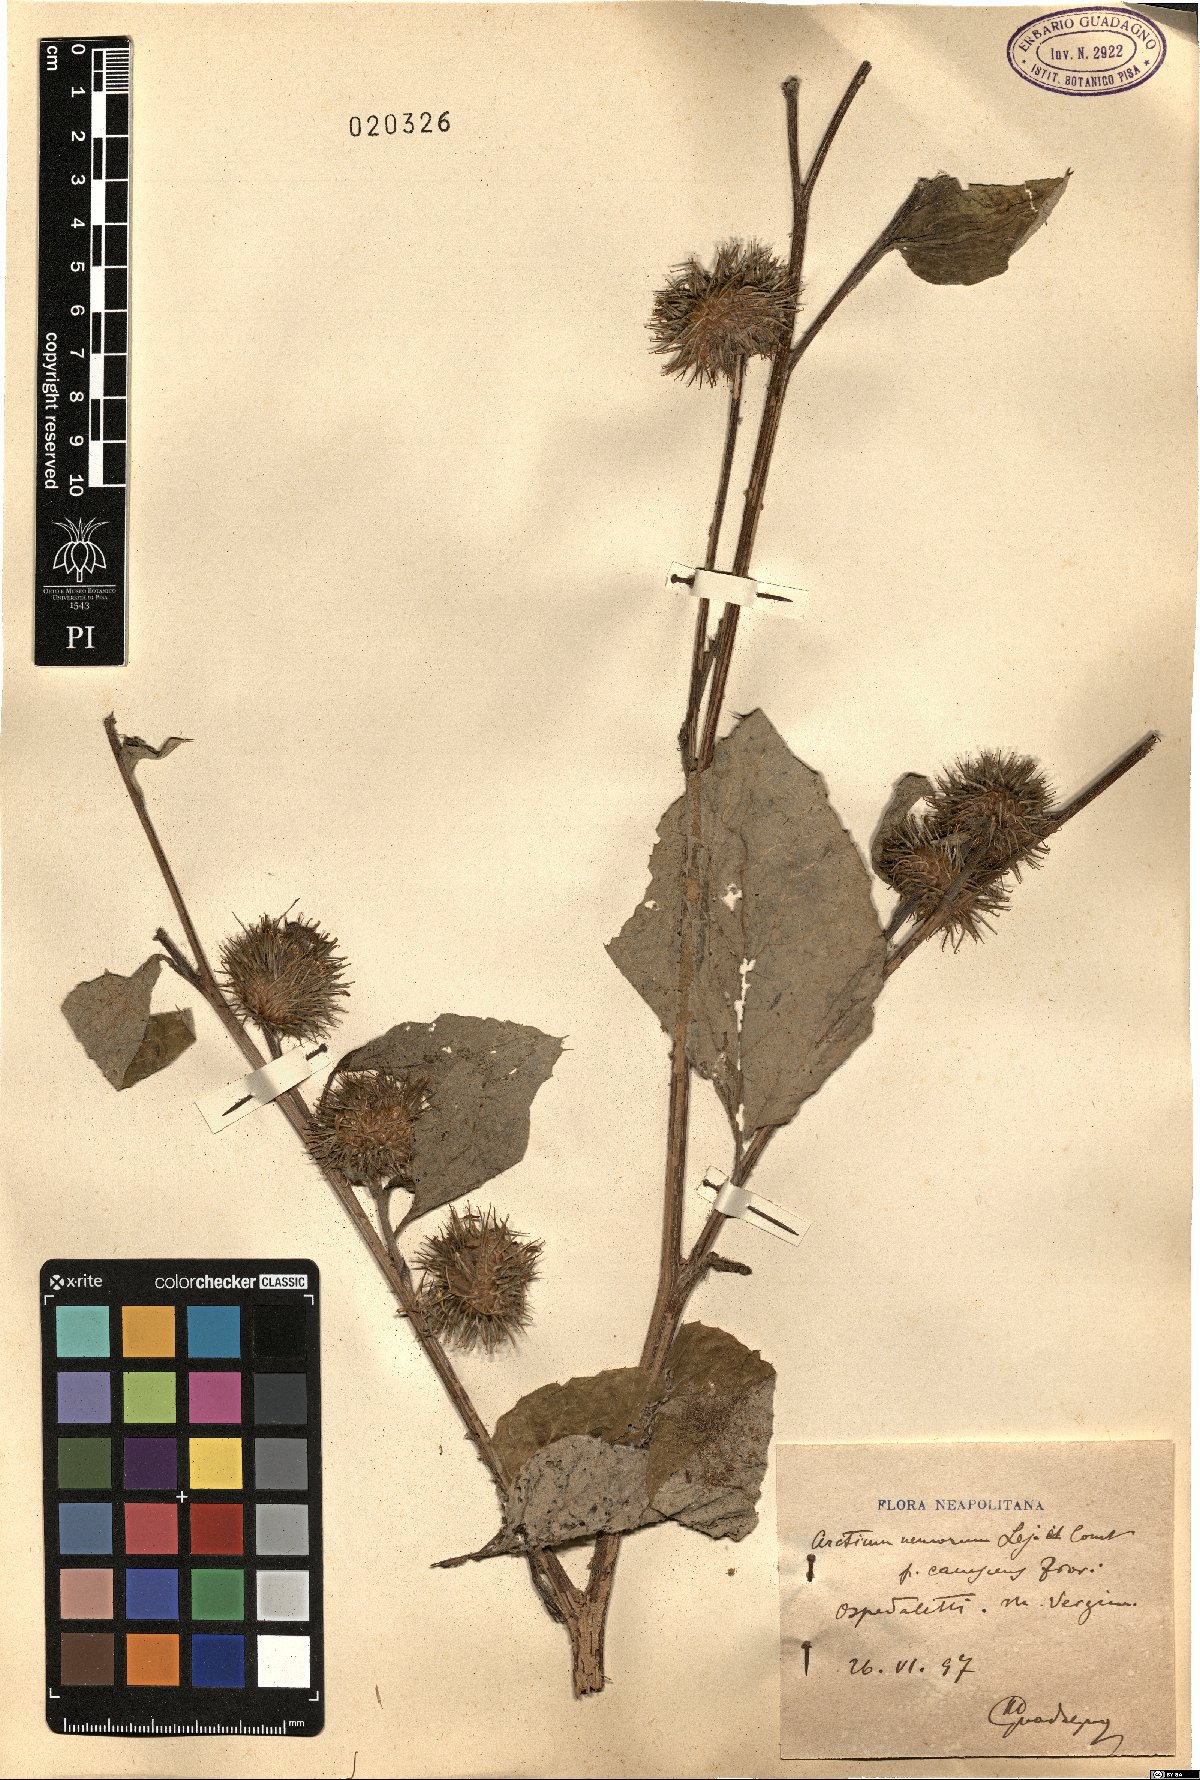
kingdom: Plantae
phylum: Tracheophyta
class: Magnoliopsida
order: Asterales
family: Asteraceae
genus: Arctium
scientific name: Arctium nemorosum
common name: Wood burdock
